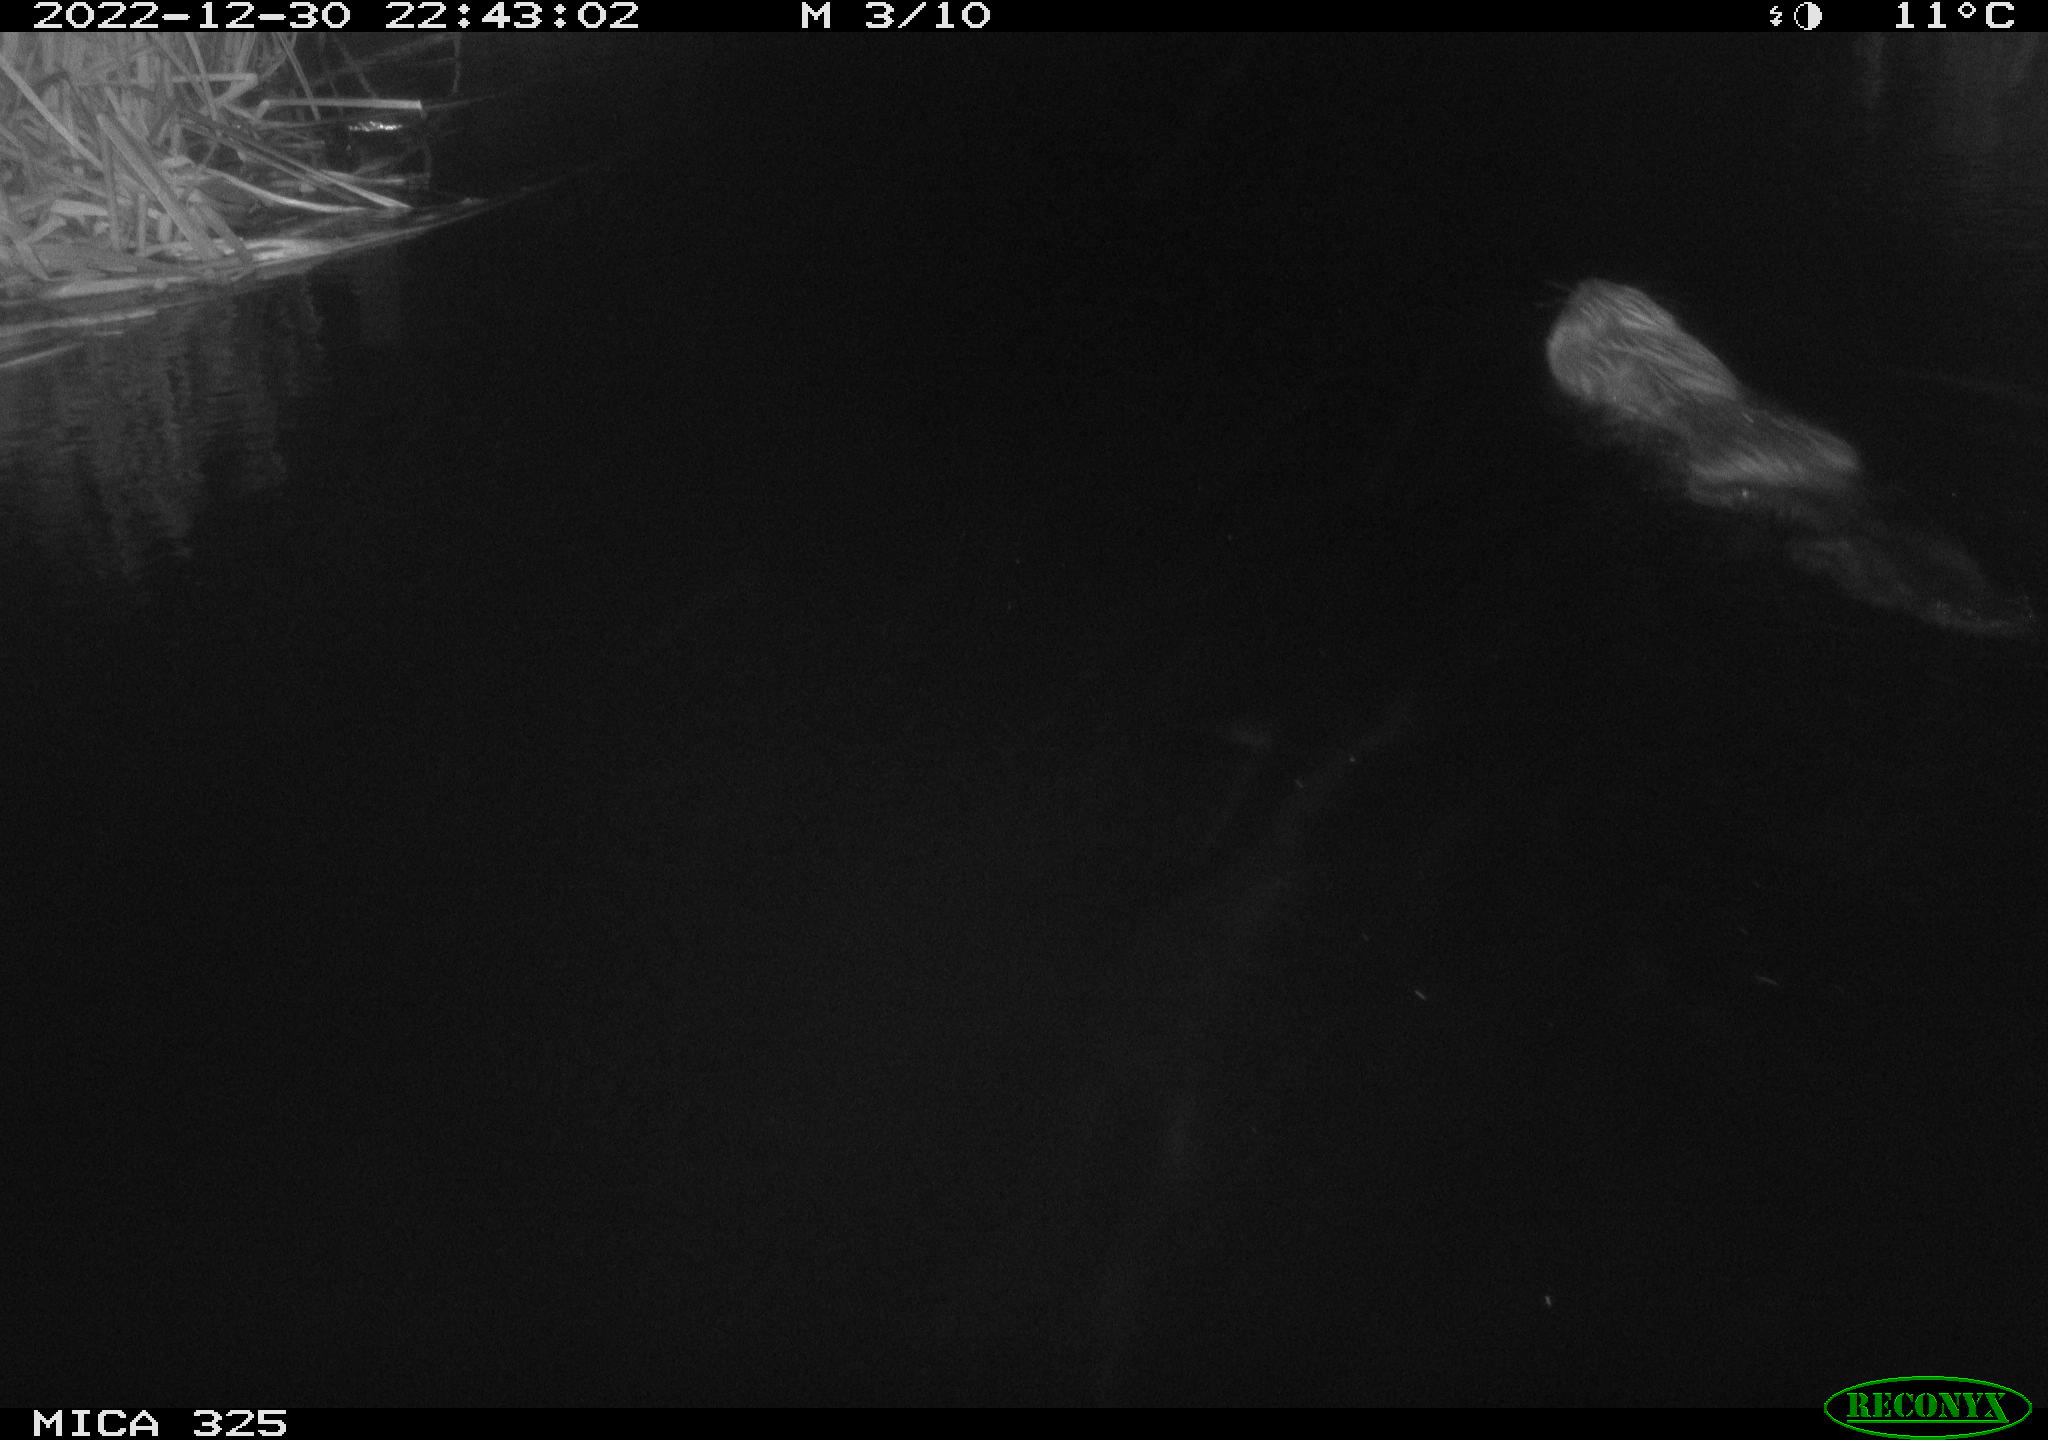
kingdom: Animalia
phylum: Chordata
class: Mammalia
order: Rodentia
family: Castoridae
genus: Castor
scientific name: Castor fiber
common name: Eurasian beaver
